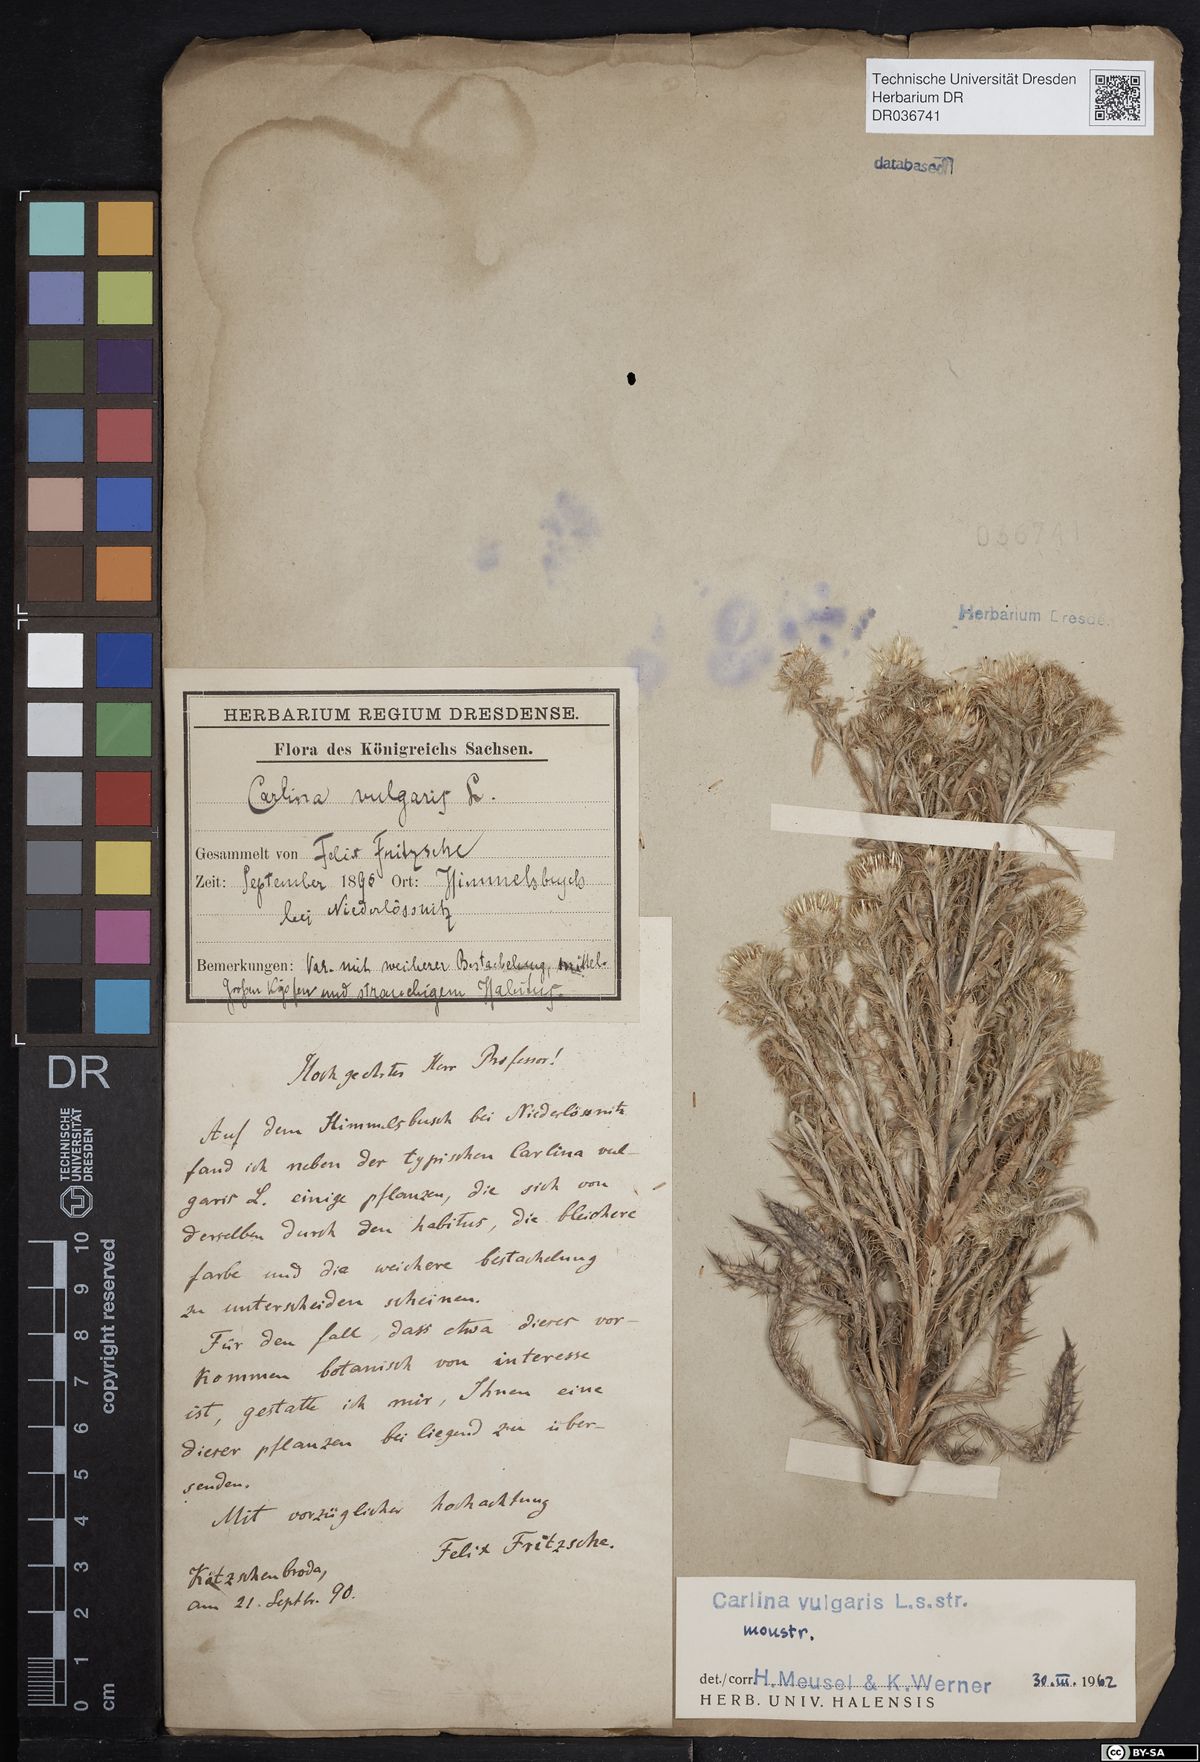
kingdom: Plantae
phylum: Tracheophyta
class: Magnoliopsida
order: Asterales
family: Asteraceae
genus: Carlina
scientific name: Carlina vulgaris
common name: Carline thistle
